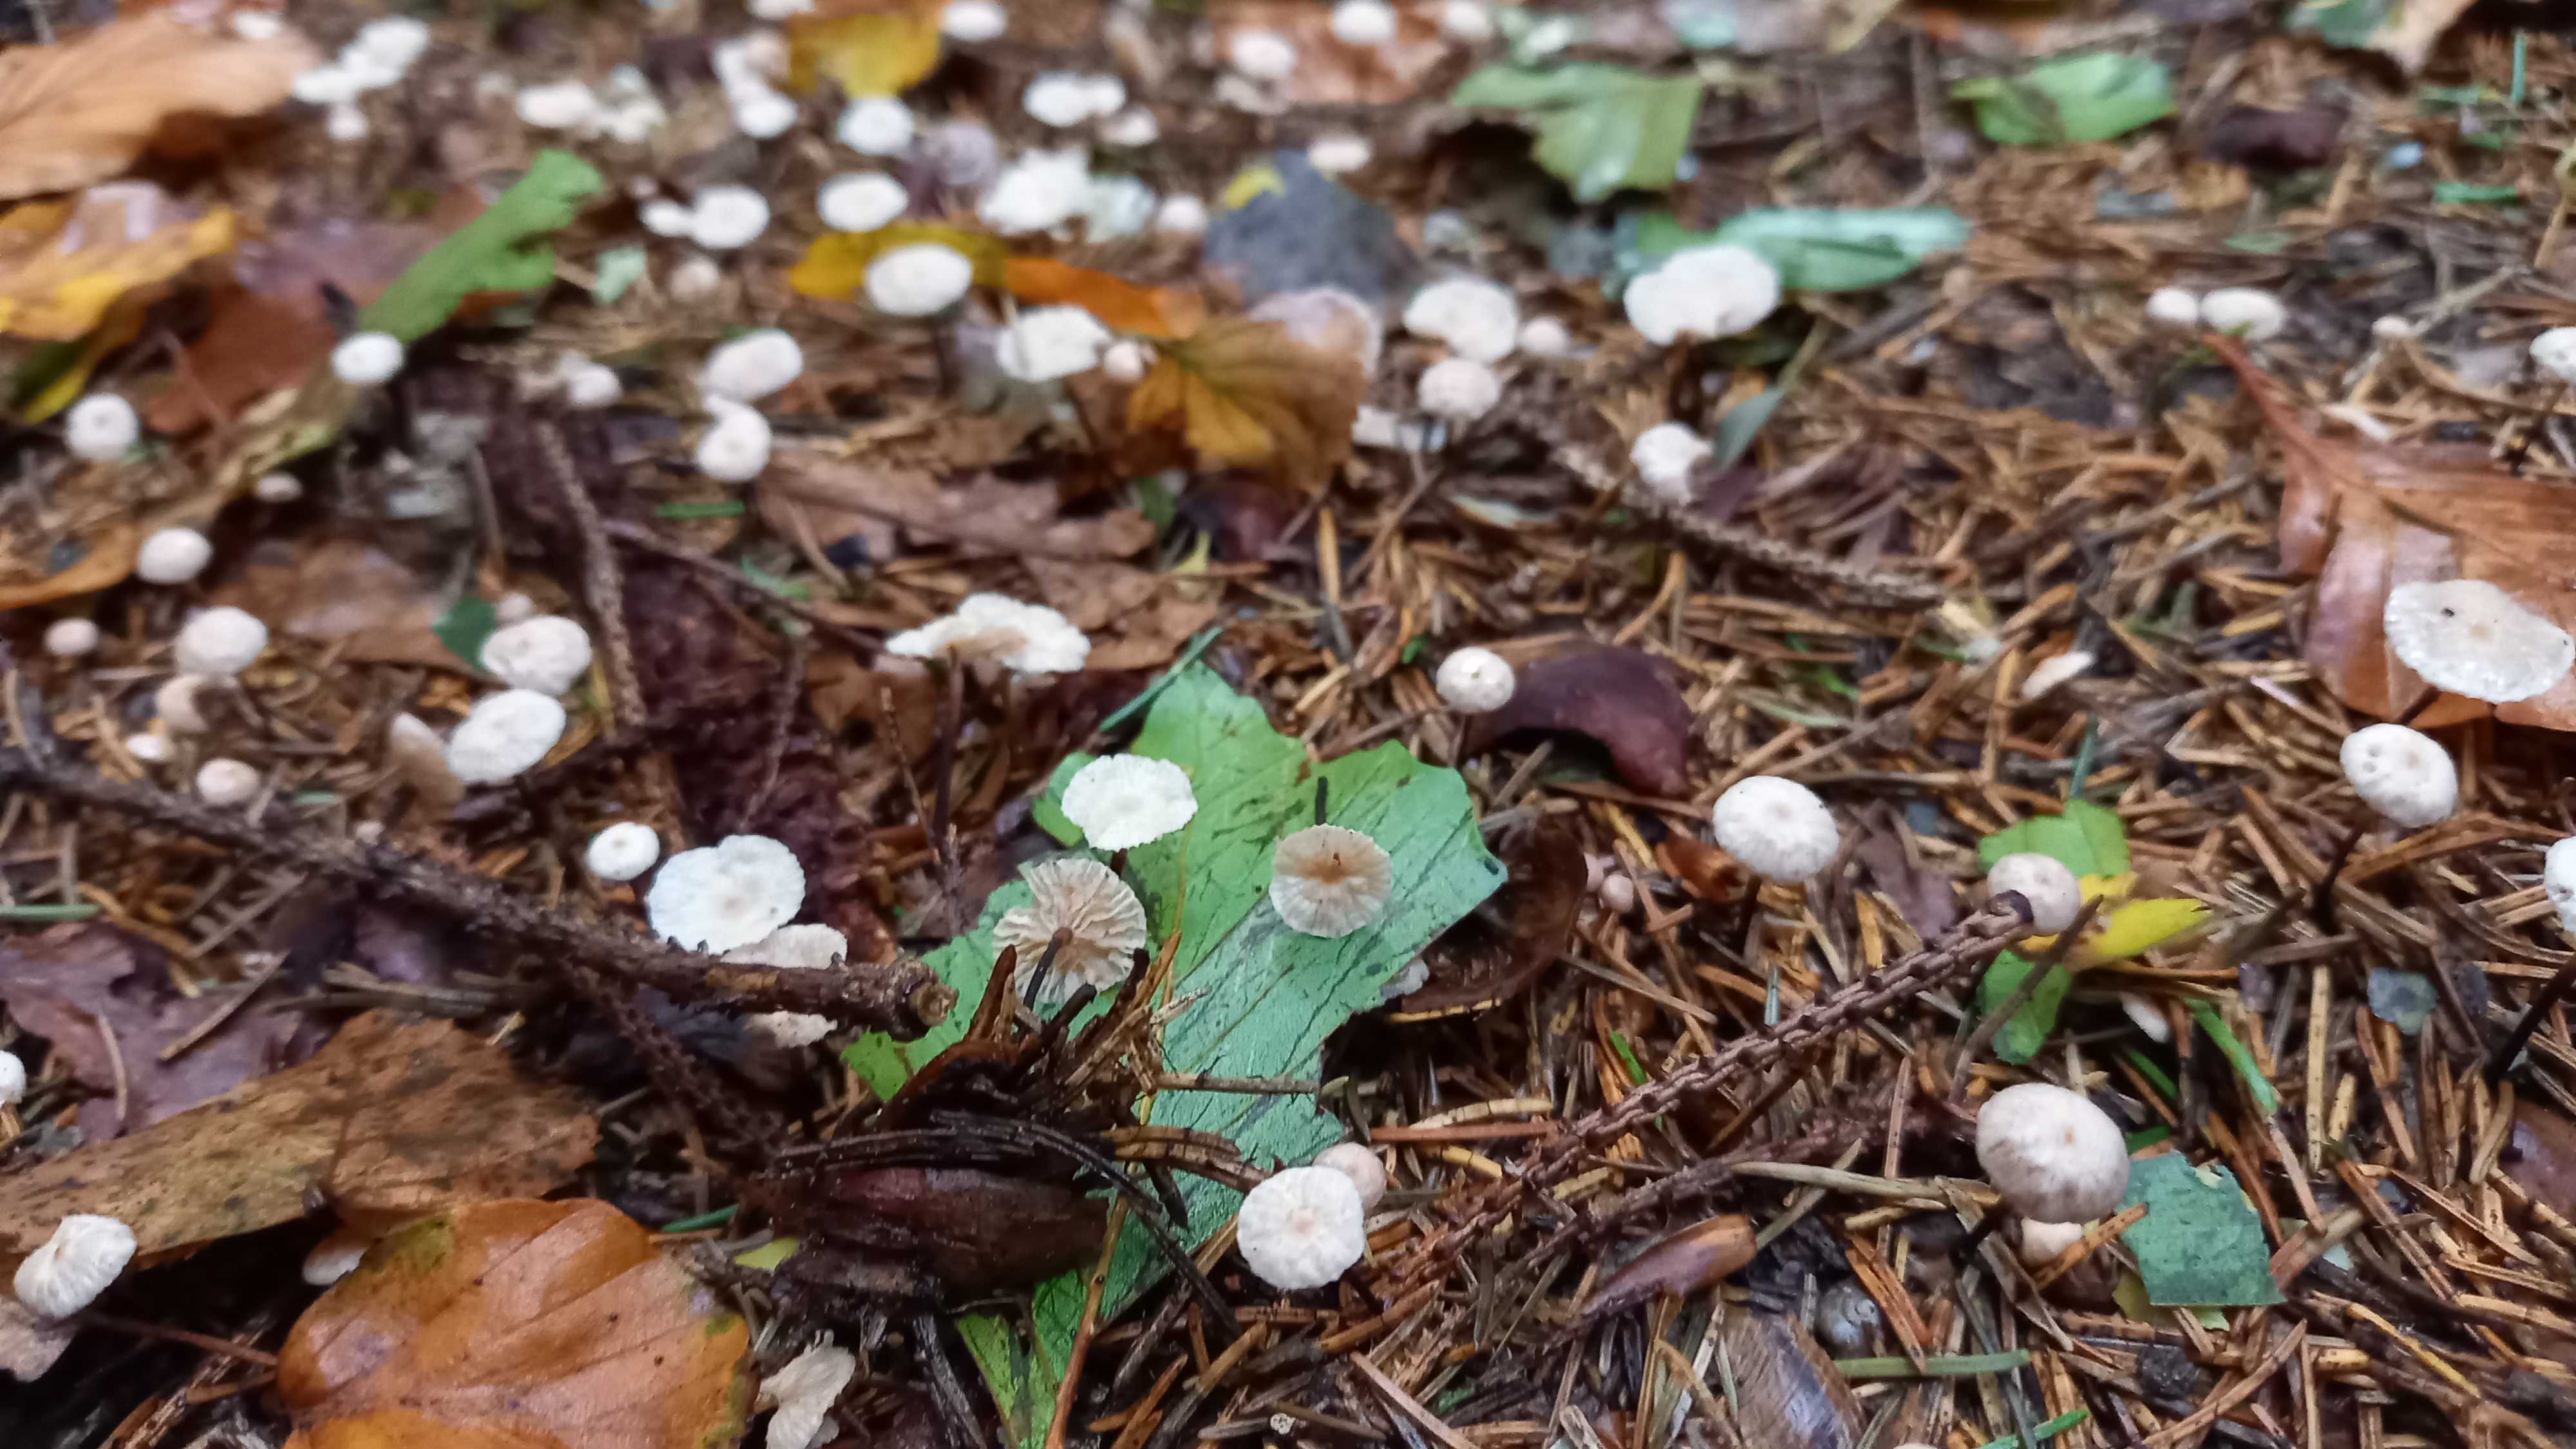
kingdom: Fungi
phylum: Basidiomycota
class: Agaricomycetes
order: Agaricales
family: Omphalotaceae
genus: Paragymnopus
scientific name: Paragymnopus perforans
